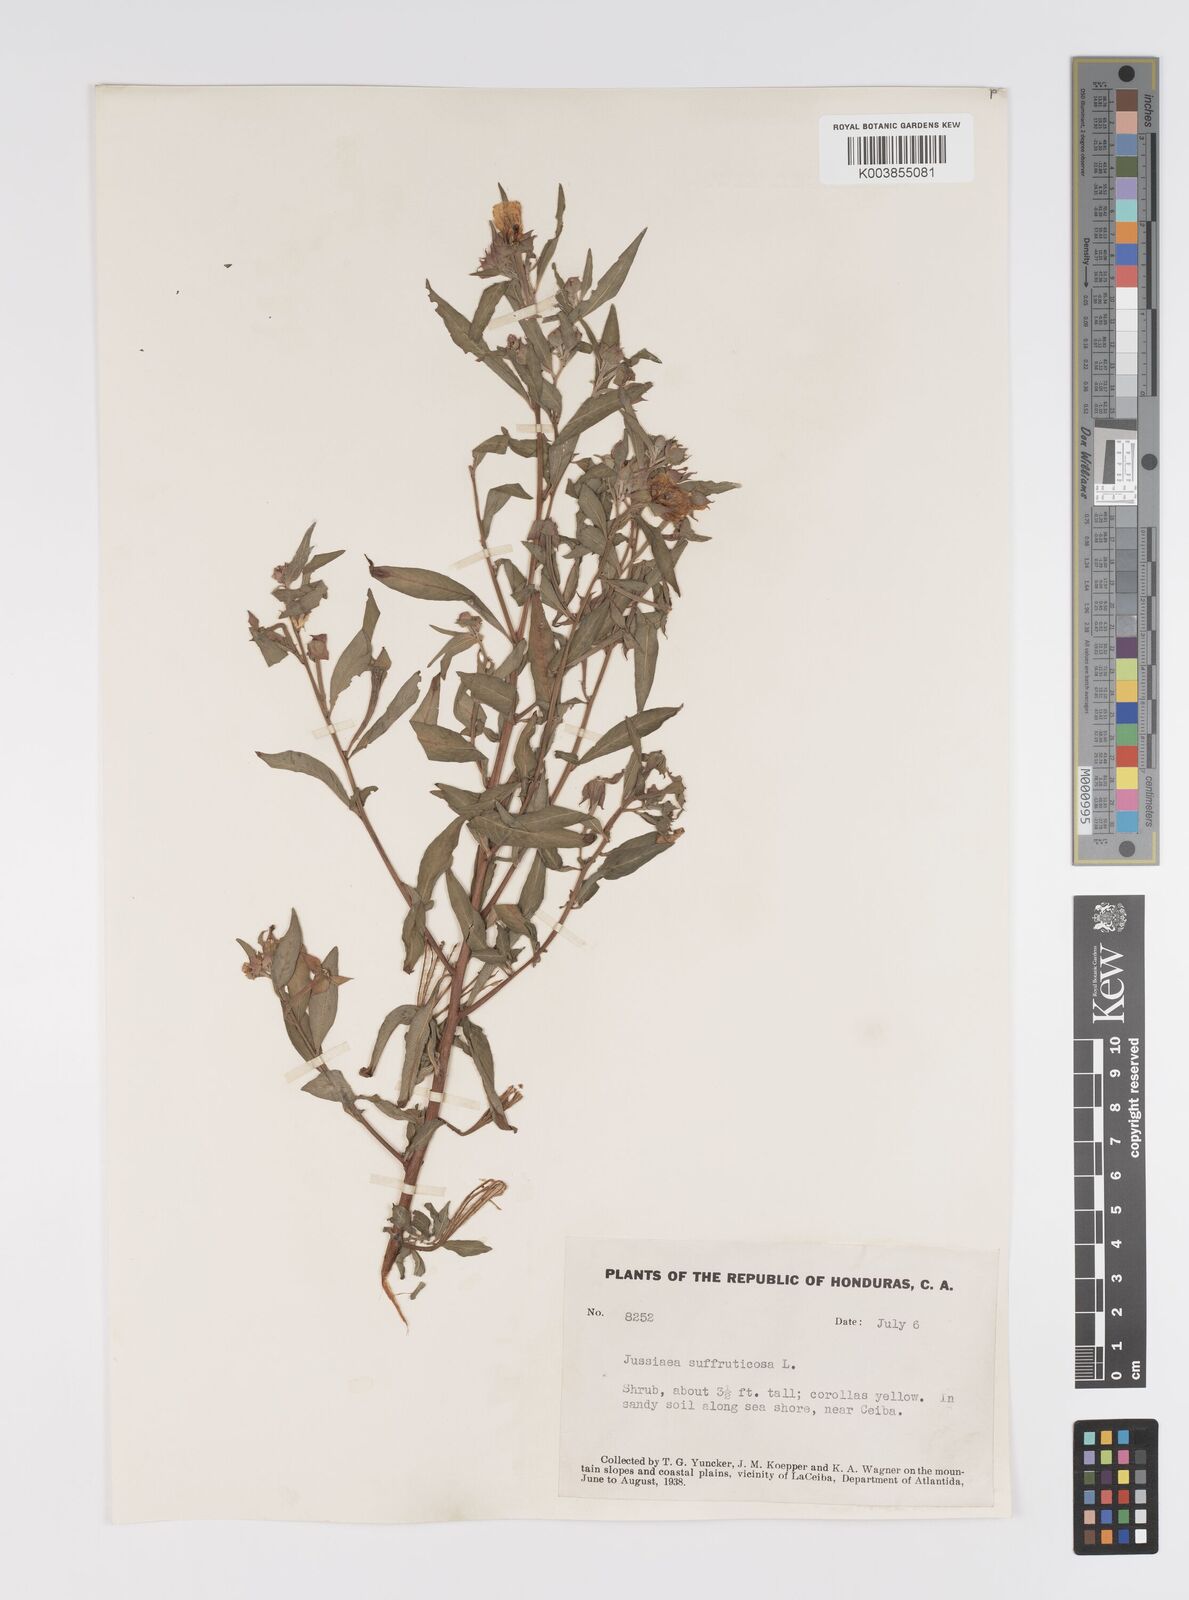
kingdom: Plantae
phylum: Tracheophyta
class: Magnoliopsida
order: Myrtales
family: Onagraceae
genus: Ludwigia
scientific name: Ludwigia octovalvis
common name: Water-primrose
